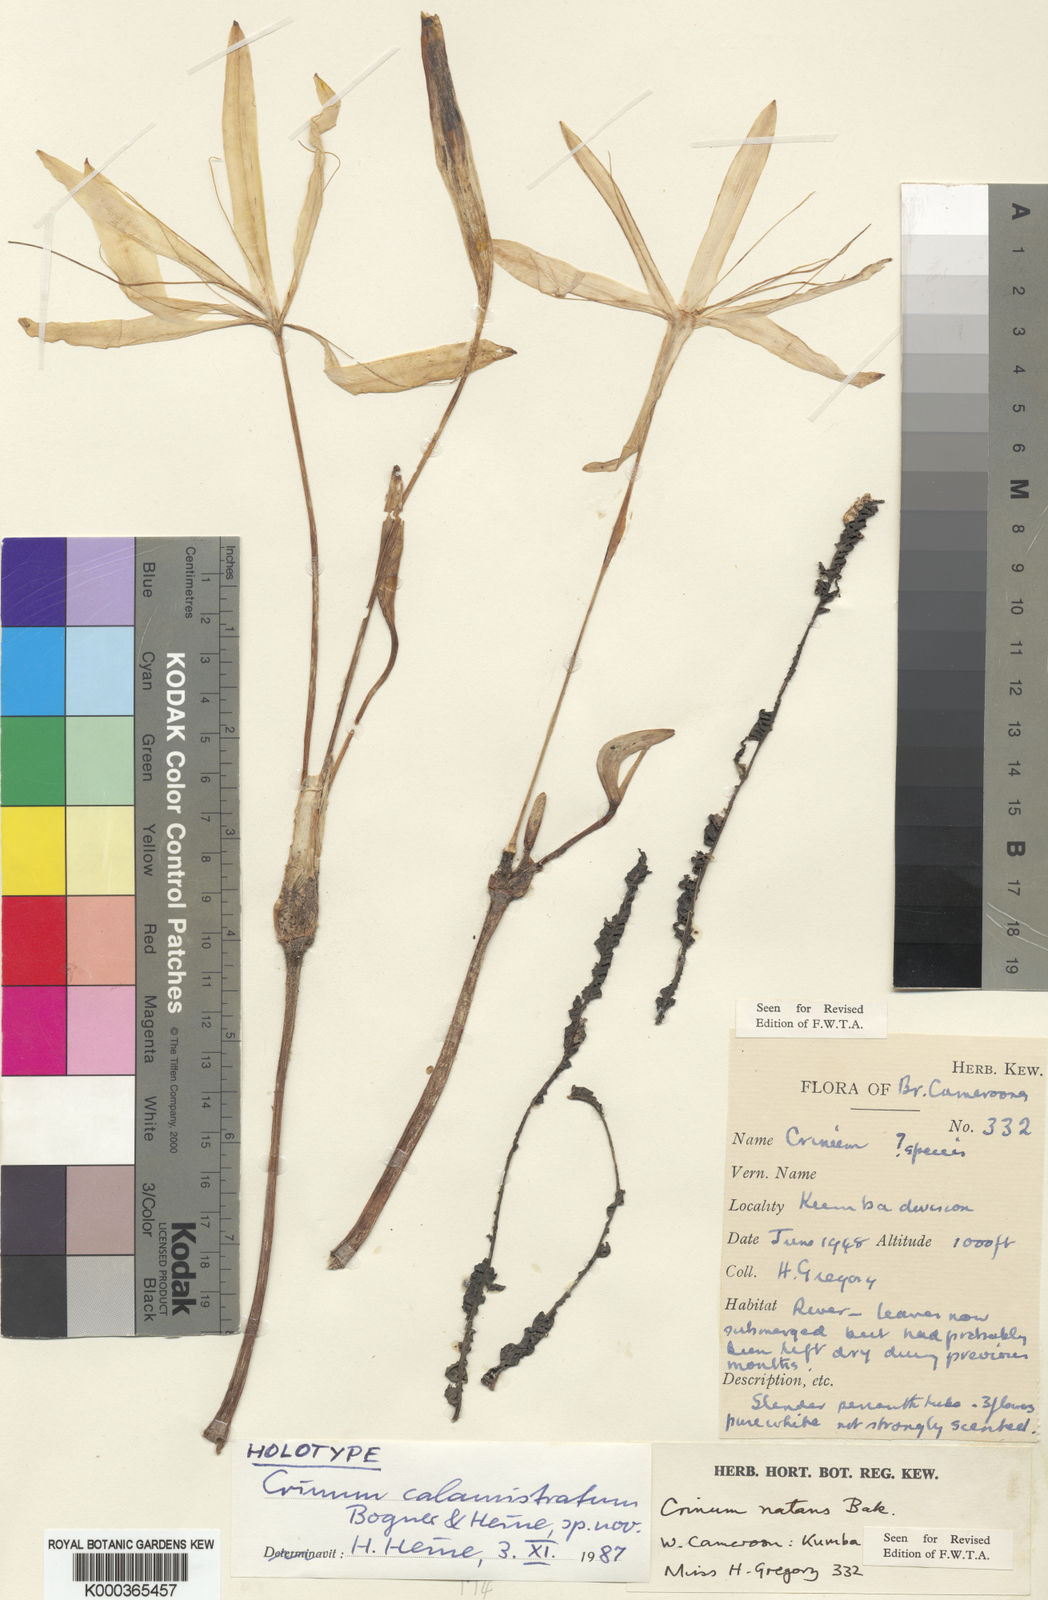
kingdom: Plantae
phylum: Tracheophyta
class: Liliopsida
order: Asparagales
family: Amaryllidaceae
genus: Crinum
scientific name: Crinum calamistratum
